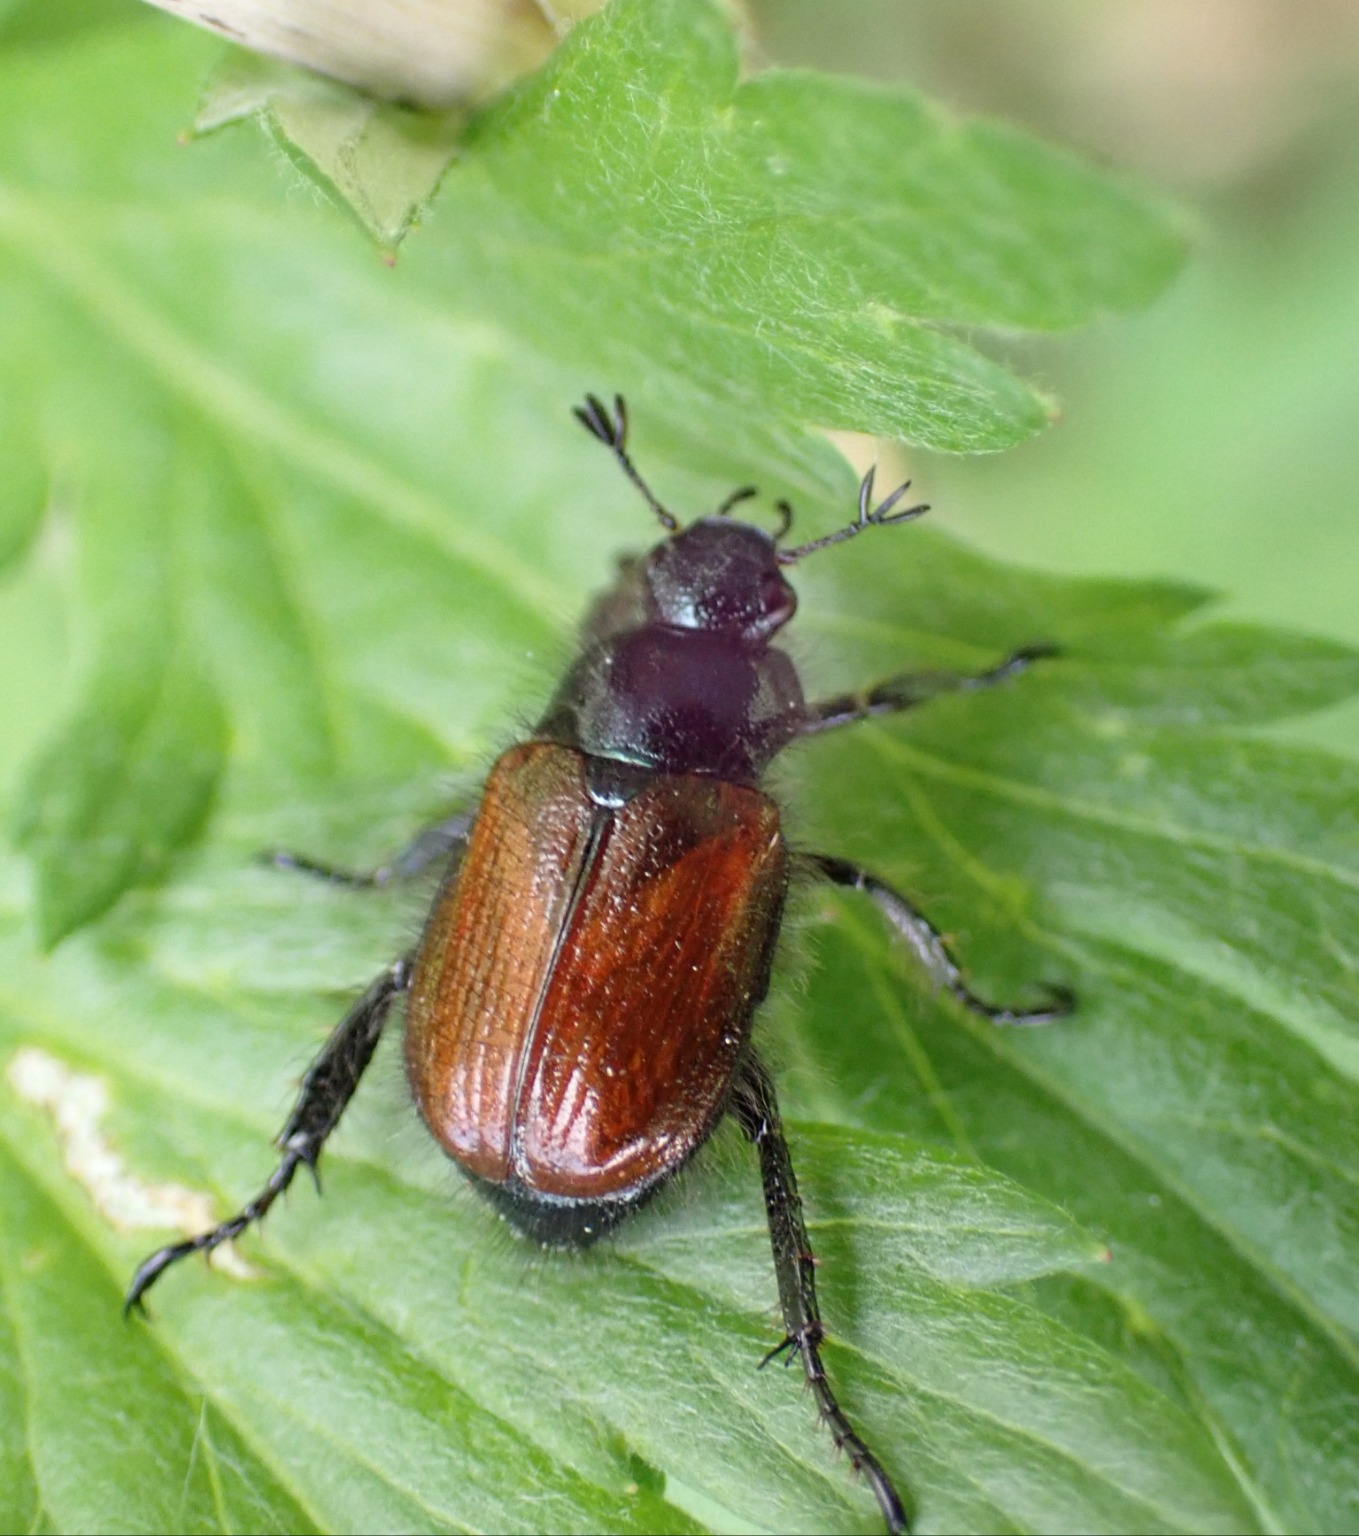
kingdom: Animalia
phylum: Arthropoda
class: Insecta
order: Coleoptera
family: Scarabaeidae
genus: Phyllopertha
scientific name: Phyllopertha horticola
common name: Gåsebille
